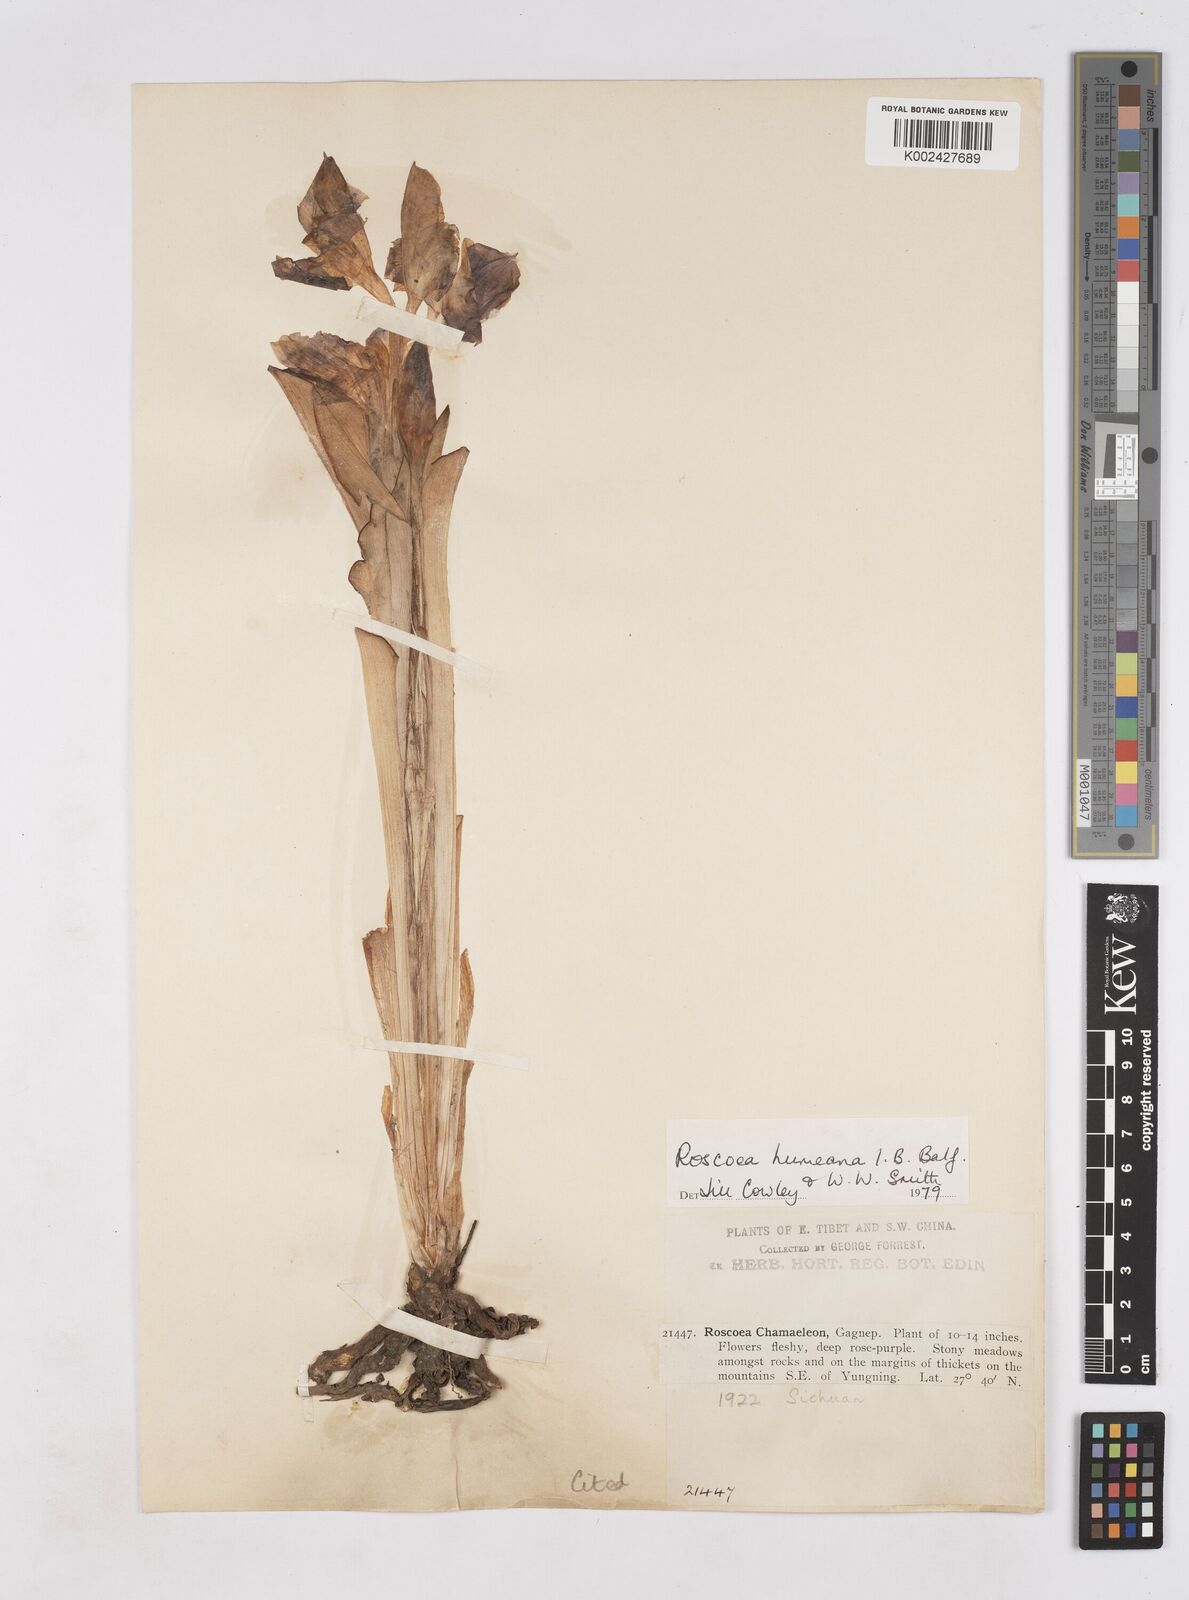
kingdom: Plantae
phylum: Tracheophyta
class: Liliopsida
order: Zingiberales
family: Zingiberaceae
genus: Roscoea
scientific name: Roscoea humeana
